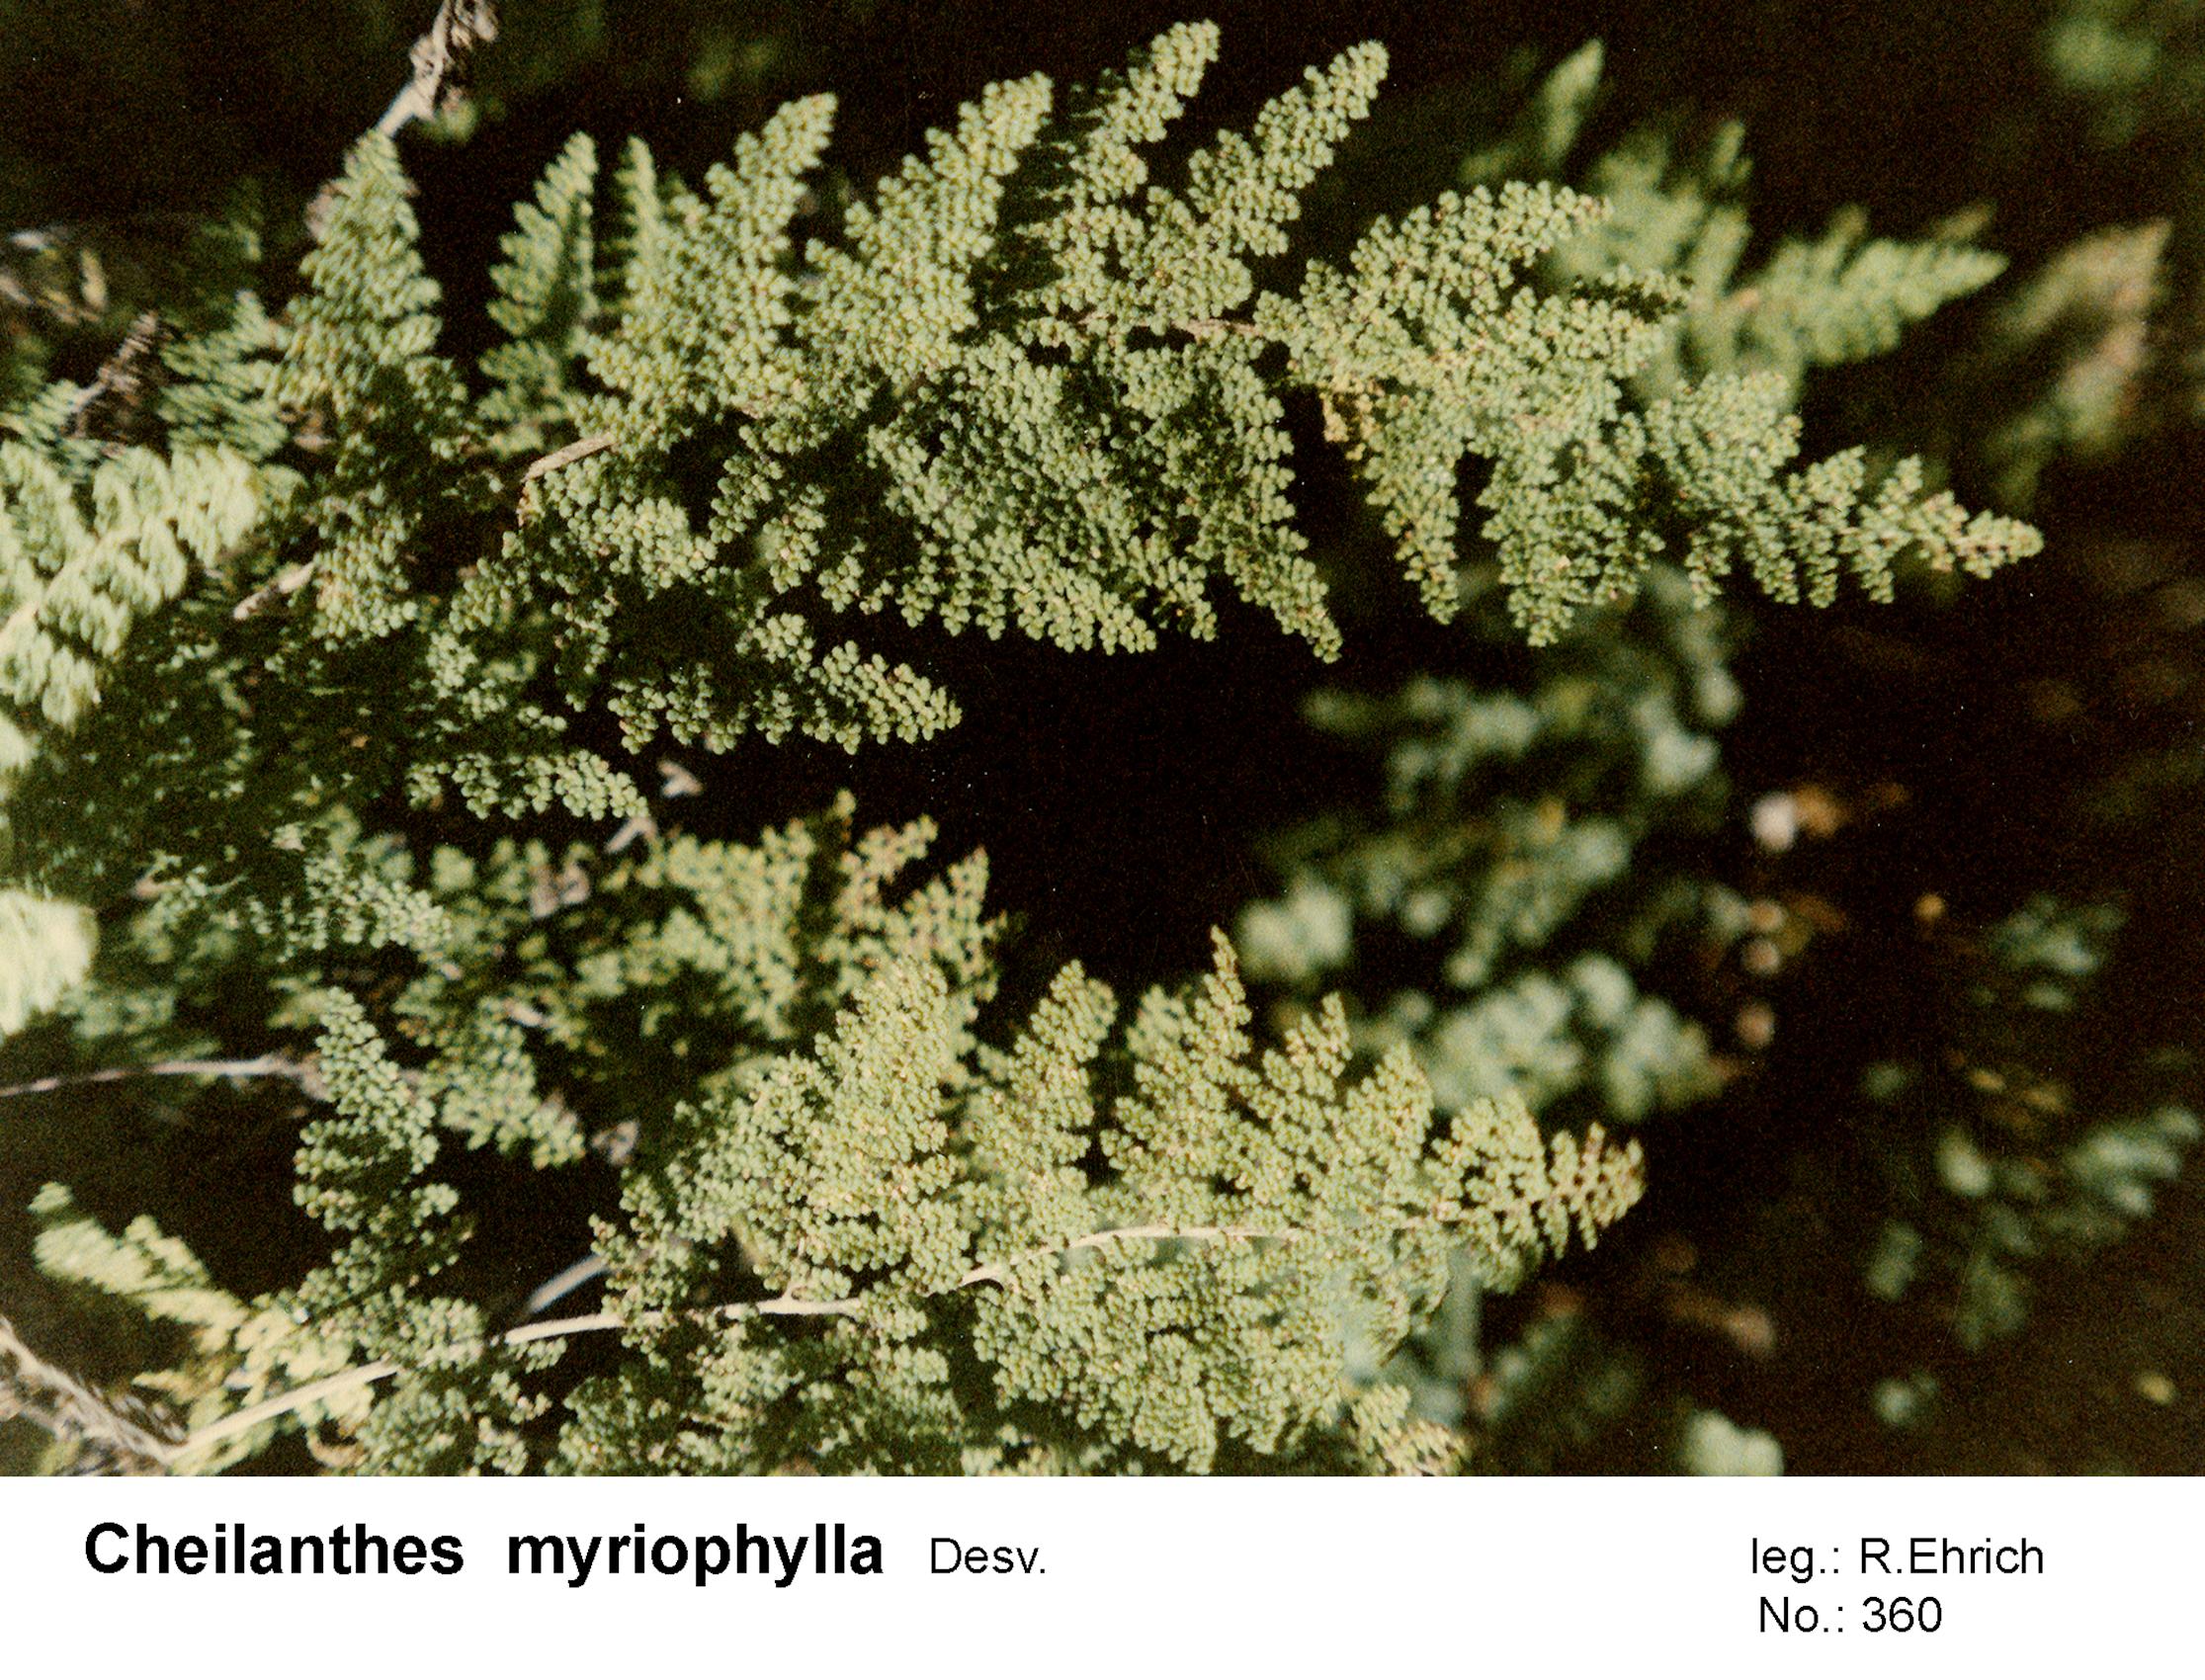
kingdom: Plantae
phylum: Tracheophyta
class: Polypodiopsida
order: Polypodiales
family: Pteridaceae
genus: Myriopteris
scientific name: Myriopteris myriophylla
